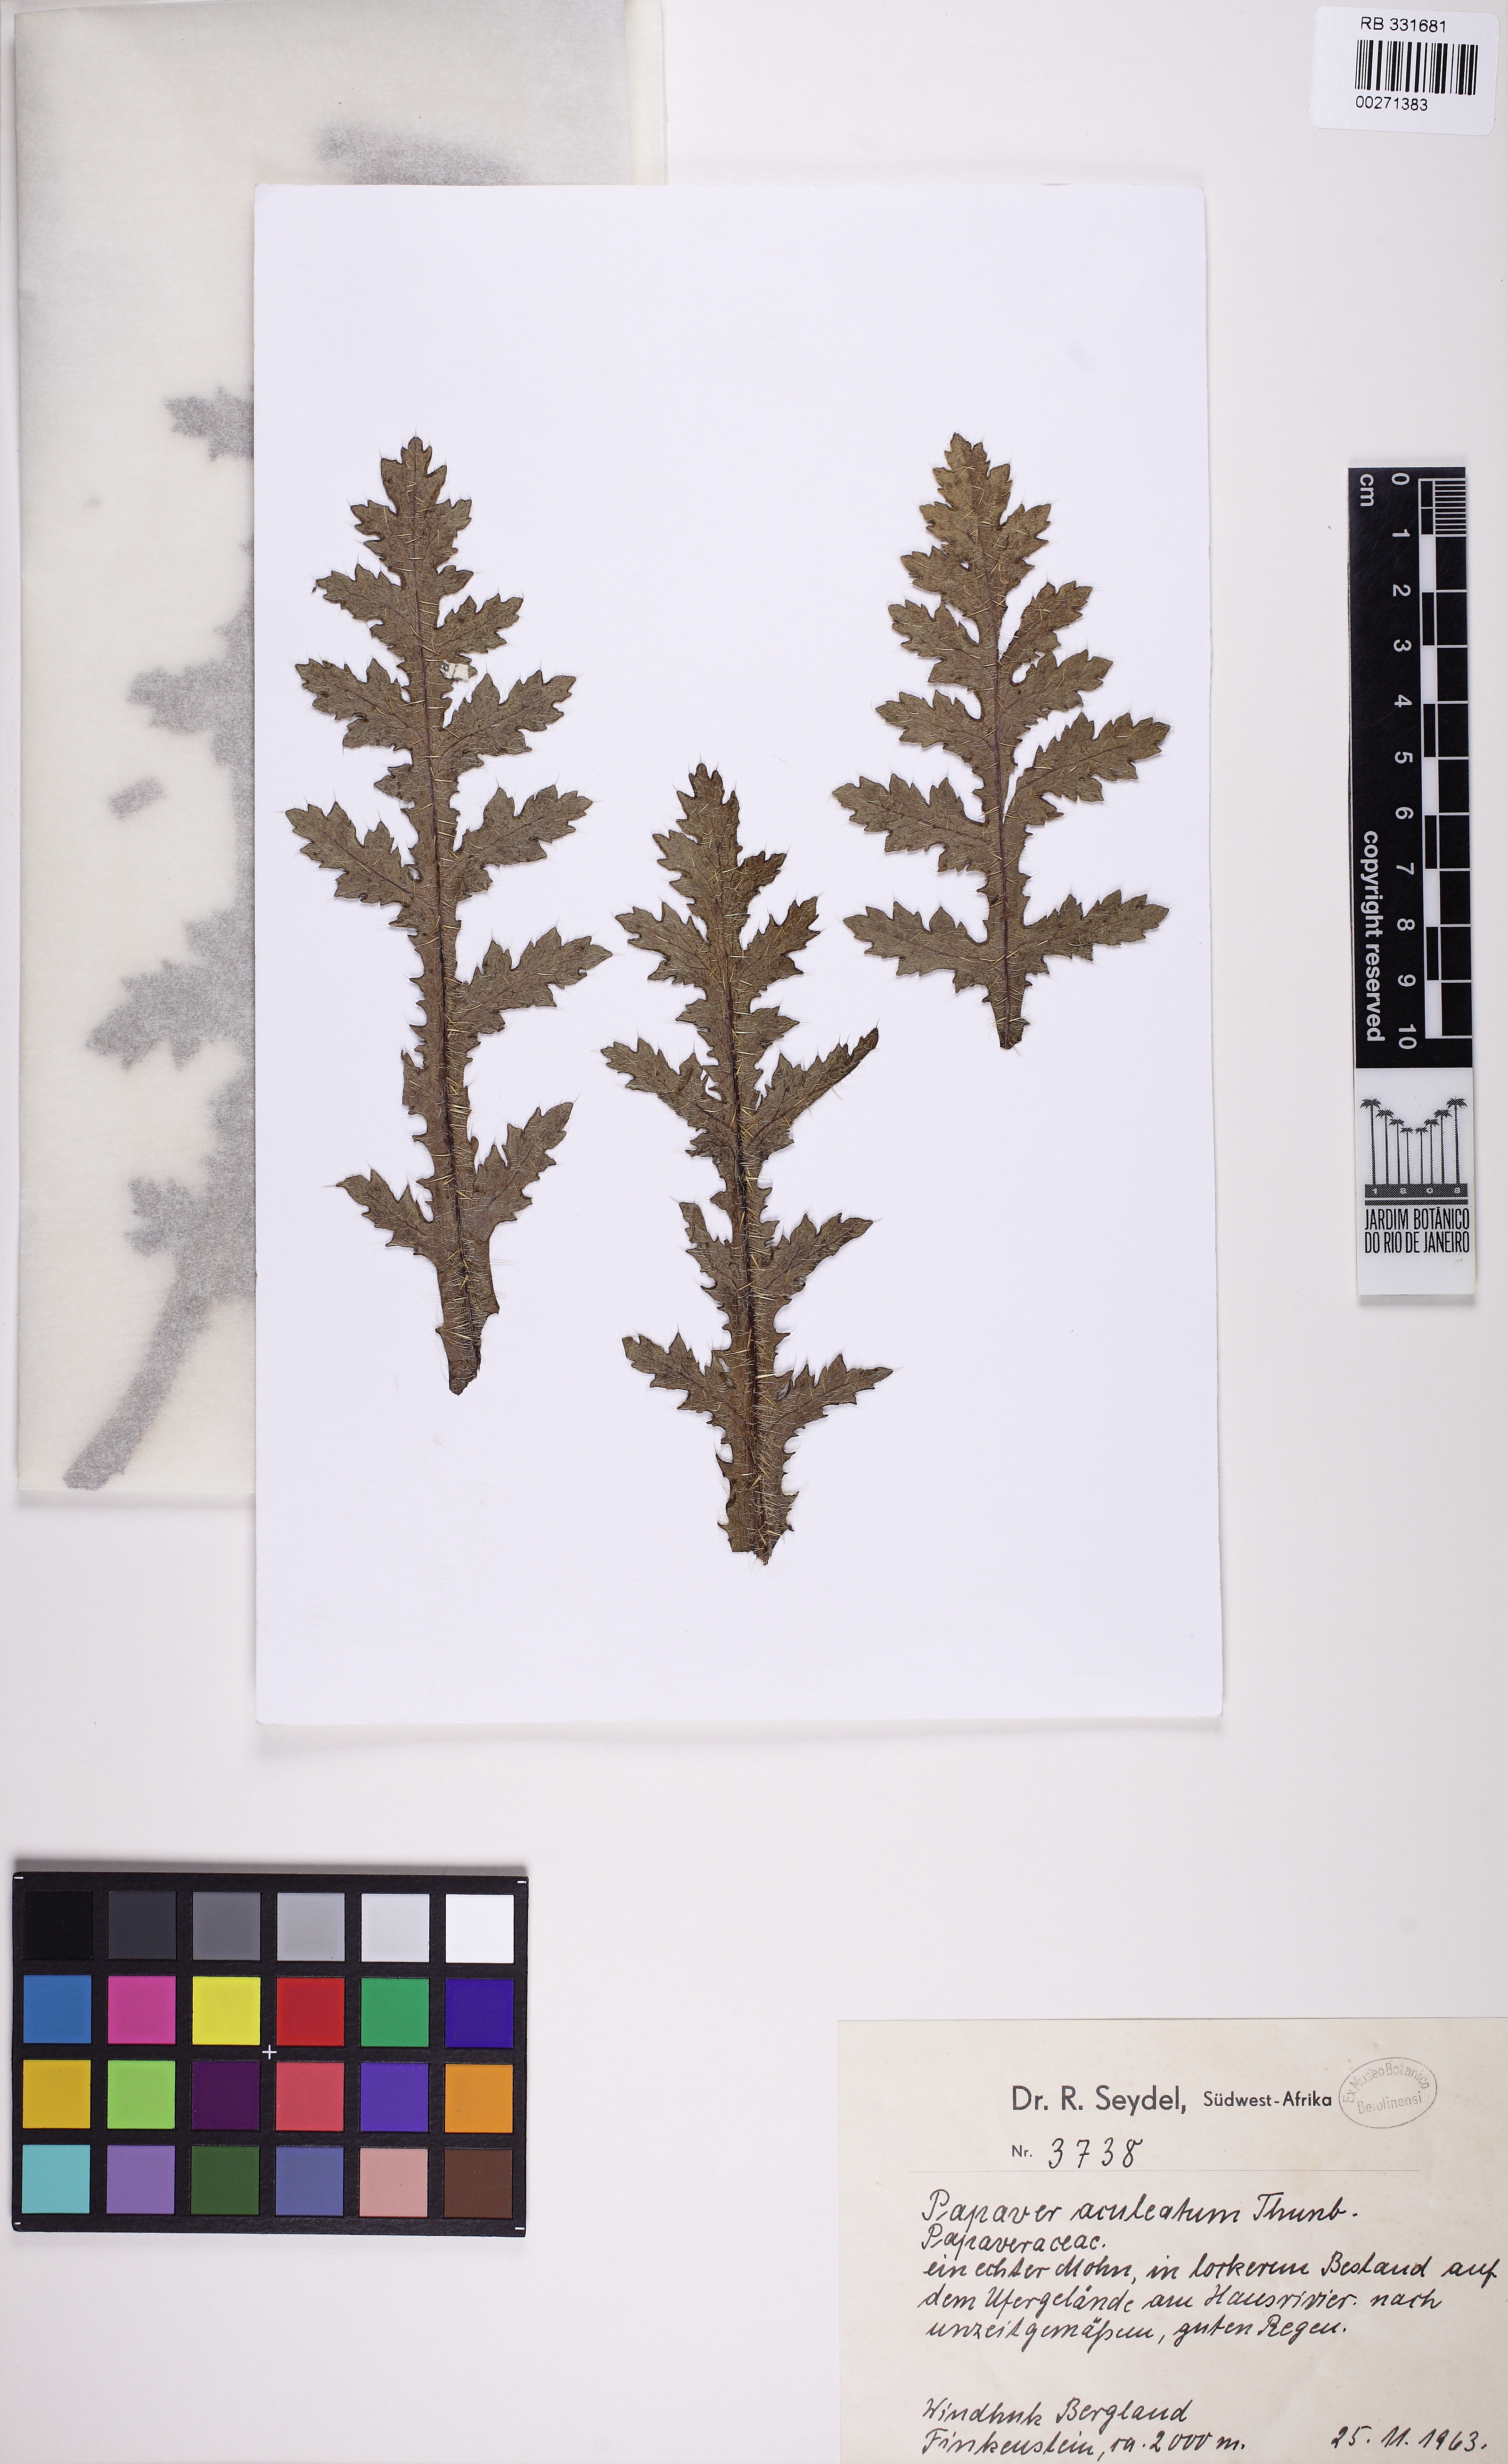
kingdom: Plantae
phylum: Tracheophyta
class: Magnoliopsida
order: Ranunculales
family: Papaveraceae
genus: Papaver
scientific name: Papaver aculeatum
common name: Bristle poppy
